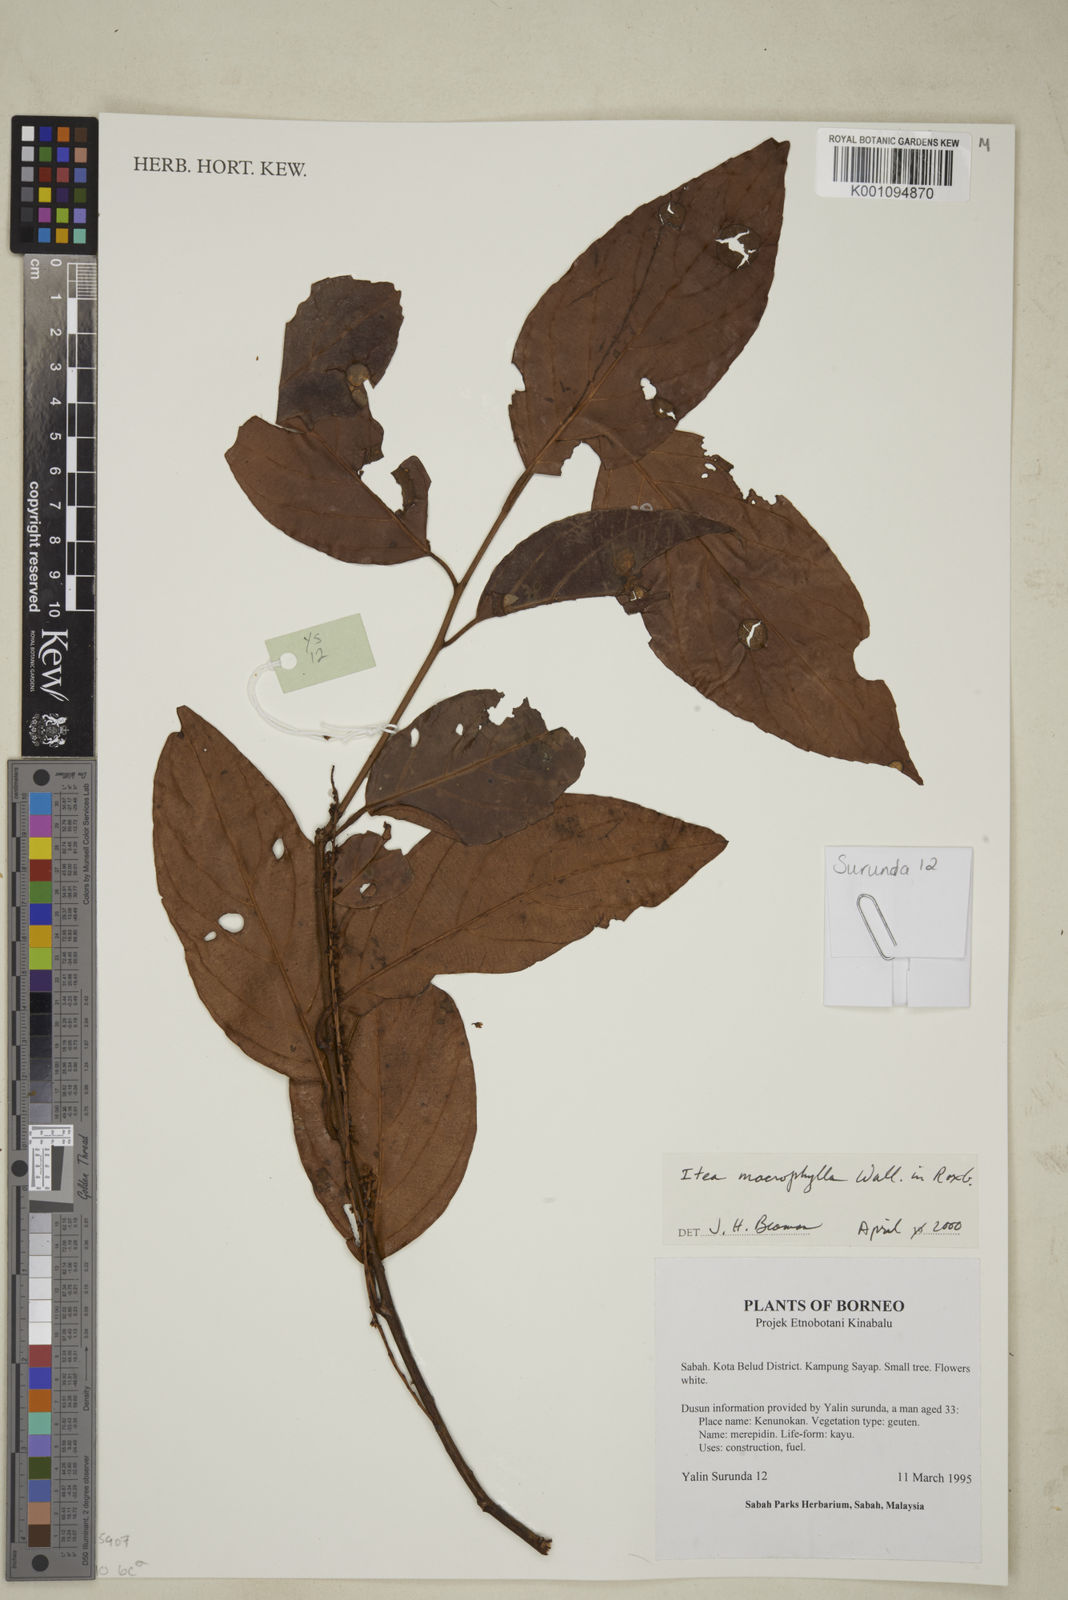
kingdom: Plantae
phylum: Tracheophyta
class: Magnoliopsida
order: Saxifragales
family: Iteaceae
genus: Itea
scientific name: Itea macrophylla
